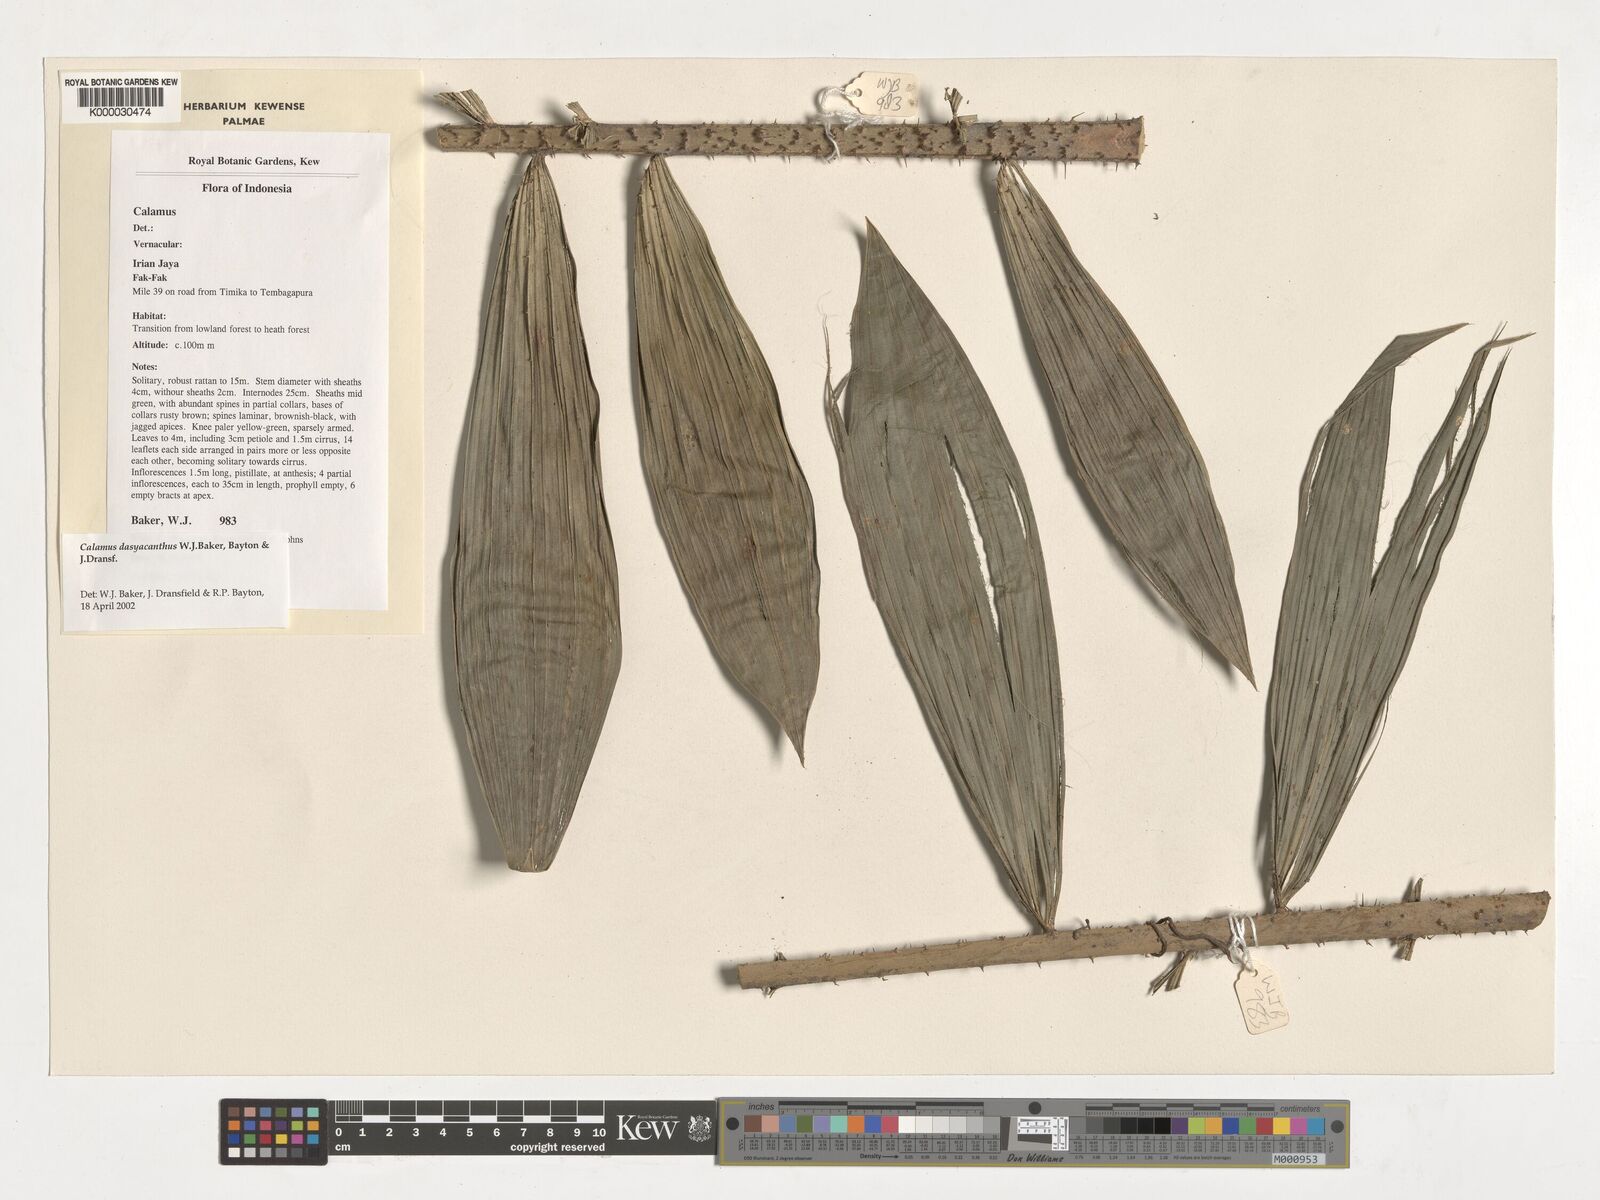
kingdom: Plantae
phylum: Tracheophyta
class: Liliopsida
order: Arecales
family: Arecaceae
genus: Calamus
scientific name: Calamus
